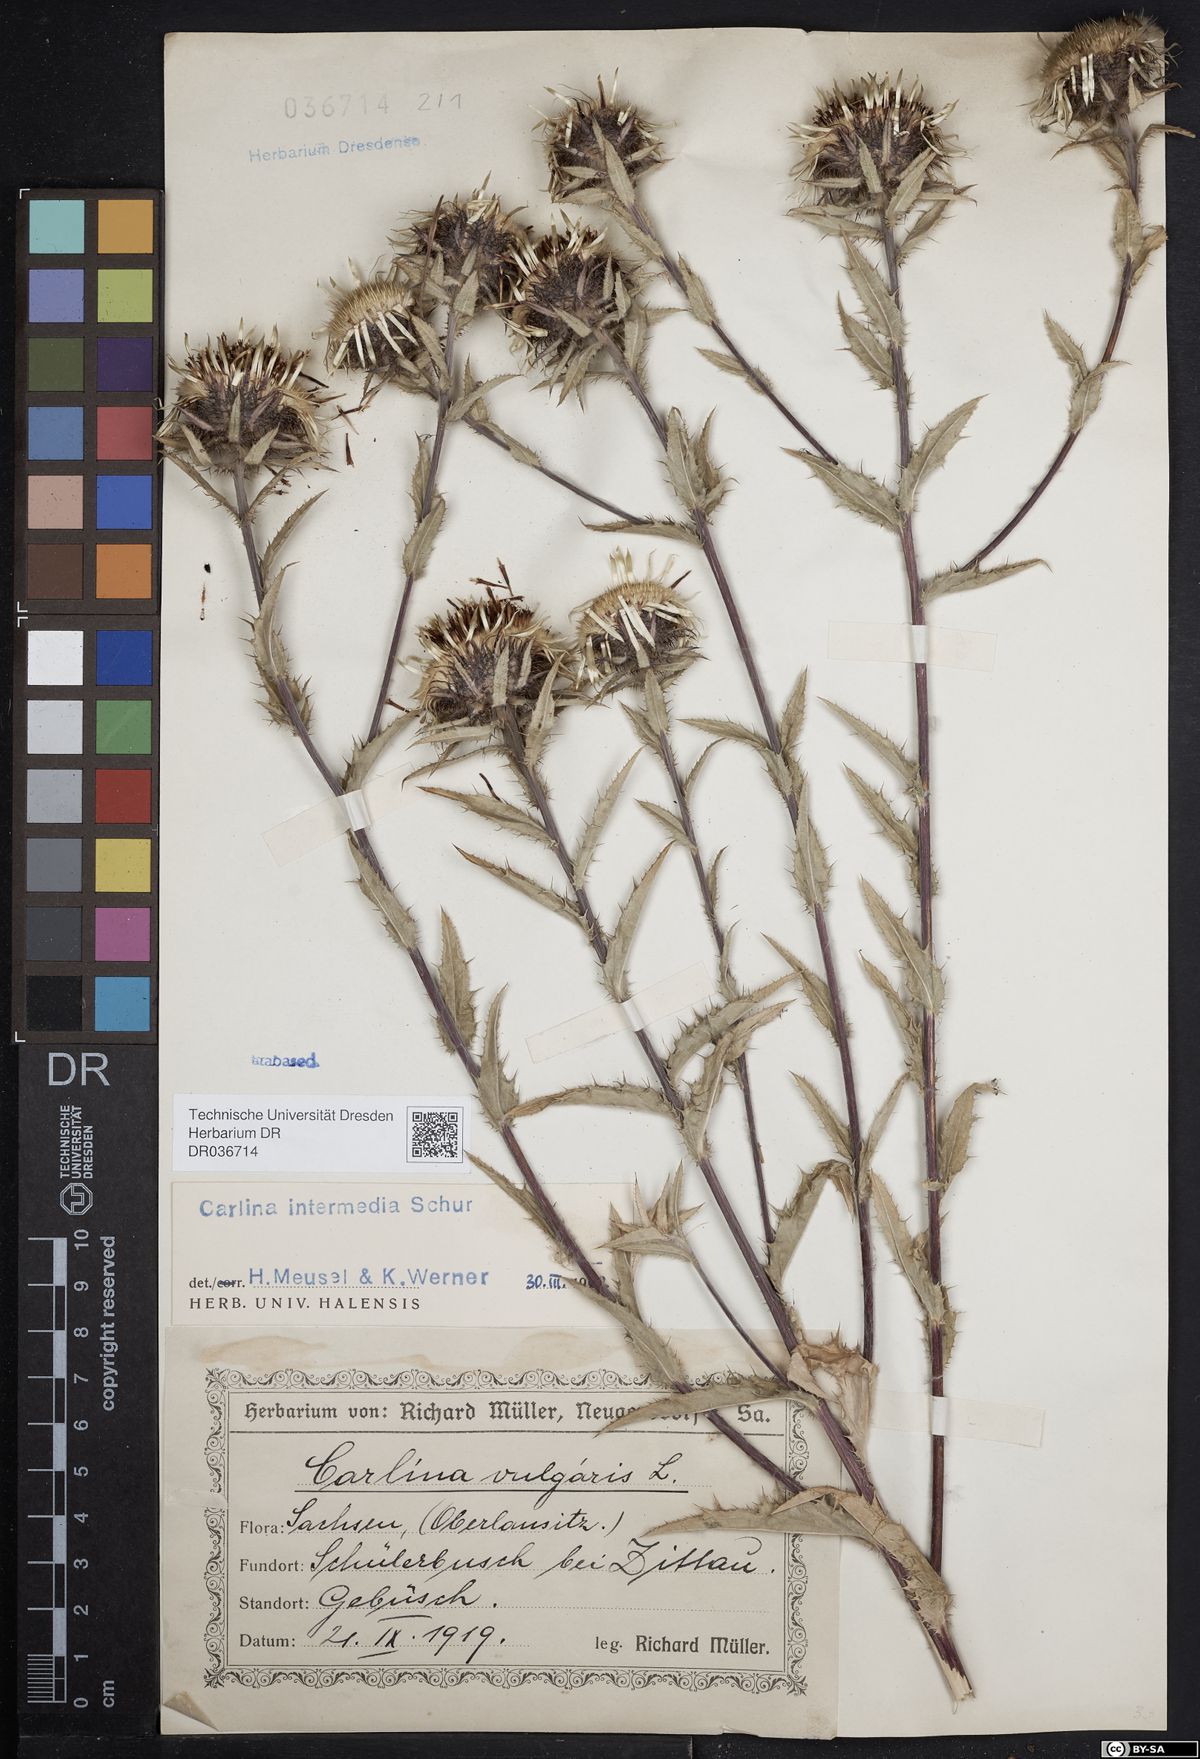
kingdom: Plantae
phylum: Tracheophyta
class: Magnoliopsida
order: Asterales
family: Asteraceae
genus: Carlina
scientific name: Carlina vulgaris
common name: Carline thistle
